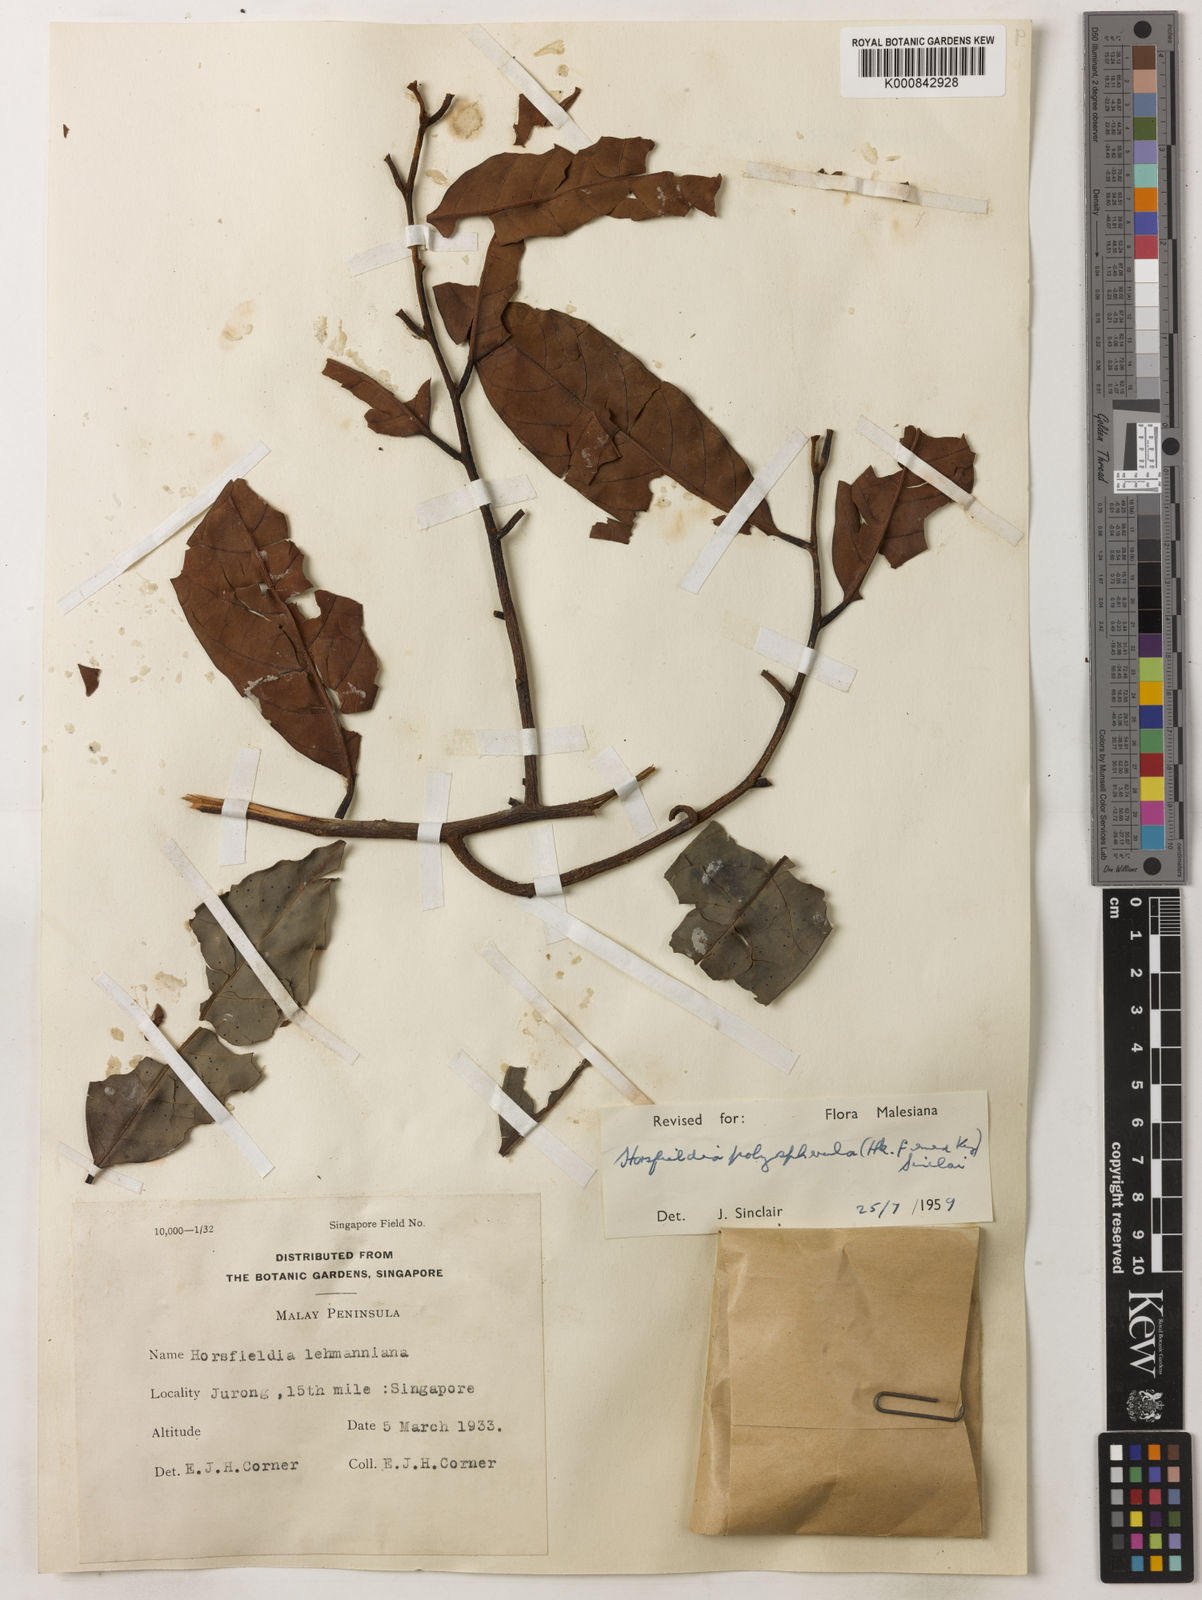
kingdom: Plantae
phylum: Tracheophyta
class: Magnoliopsida
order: Magnoliales
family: Myristicaceae
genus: Horsfieldia
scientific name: Horsfieldia polyspherula
